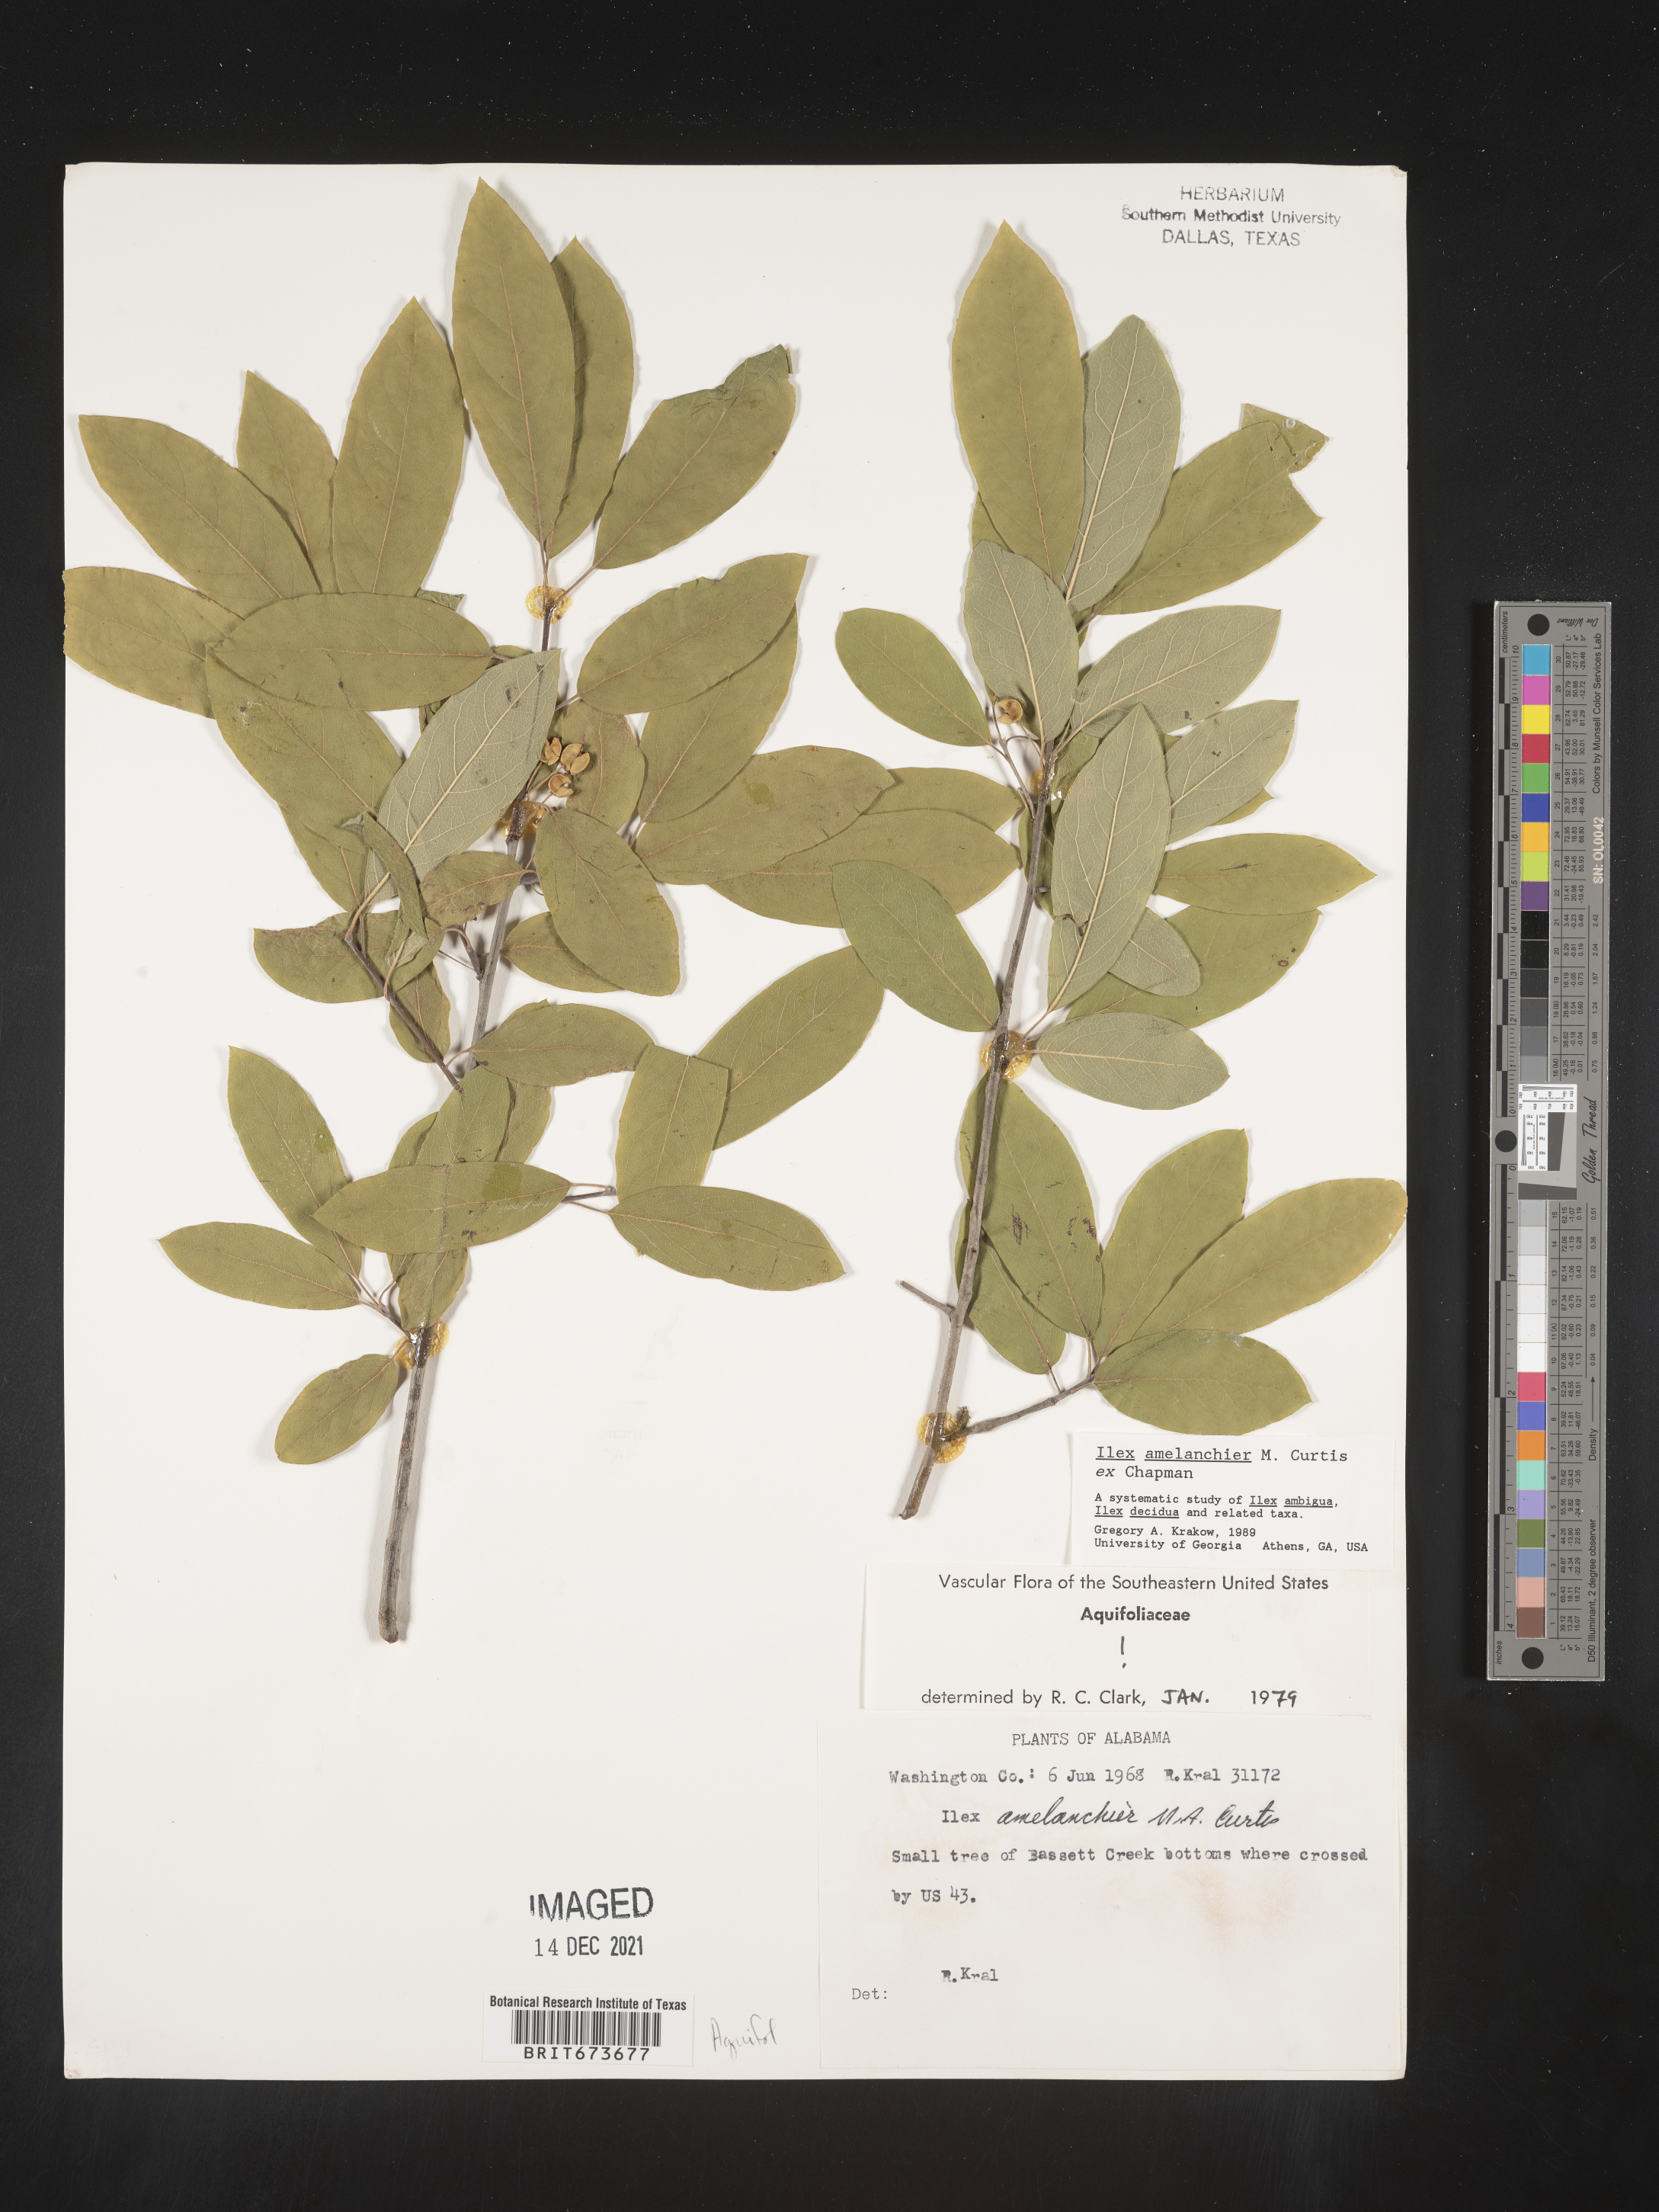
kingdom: Plantae
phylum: Tracheophyta
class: Magnoliopsida
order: Aquifoliales
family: Aquifoliaceae
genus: Ilex
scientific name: Ilex amelanchier
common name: Sarvis holly
